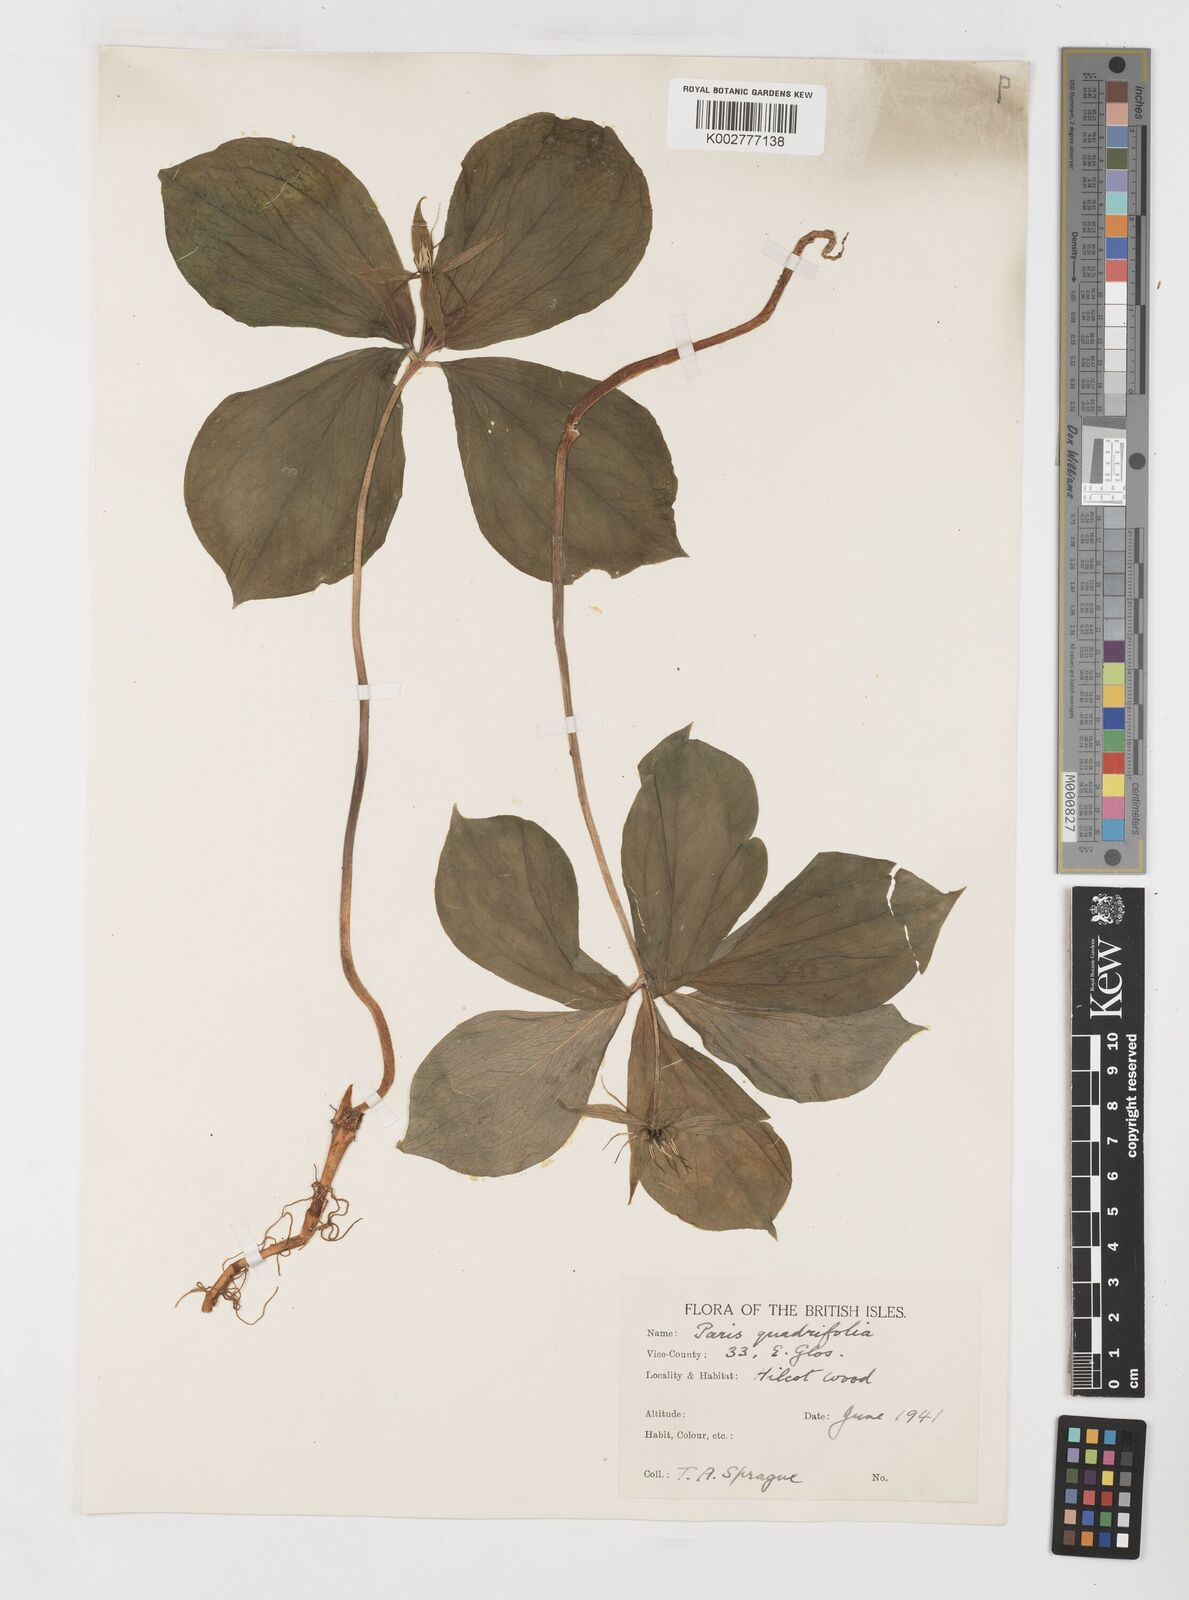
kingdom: Plantae
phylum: Tracheophyta
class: Liliopsida
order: Liliales
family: Melanthiaceae
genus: Paris
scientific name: Paris quadrifolia
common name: Herb-paris
